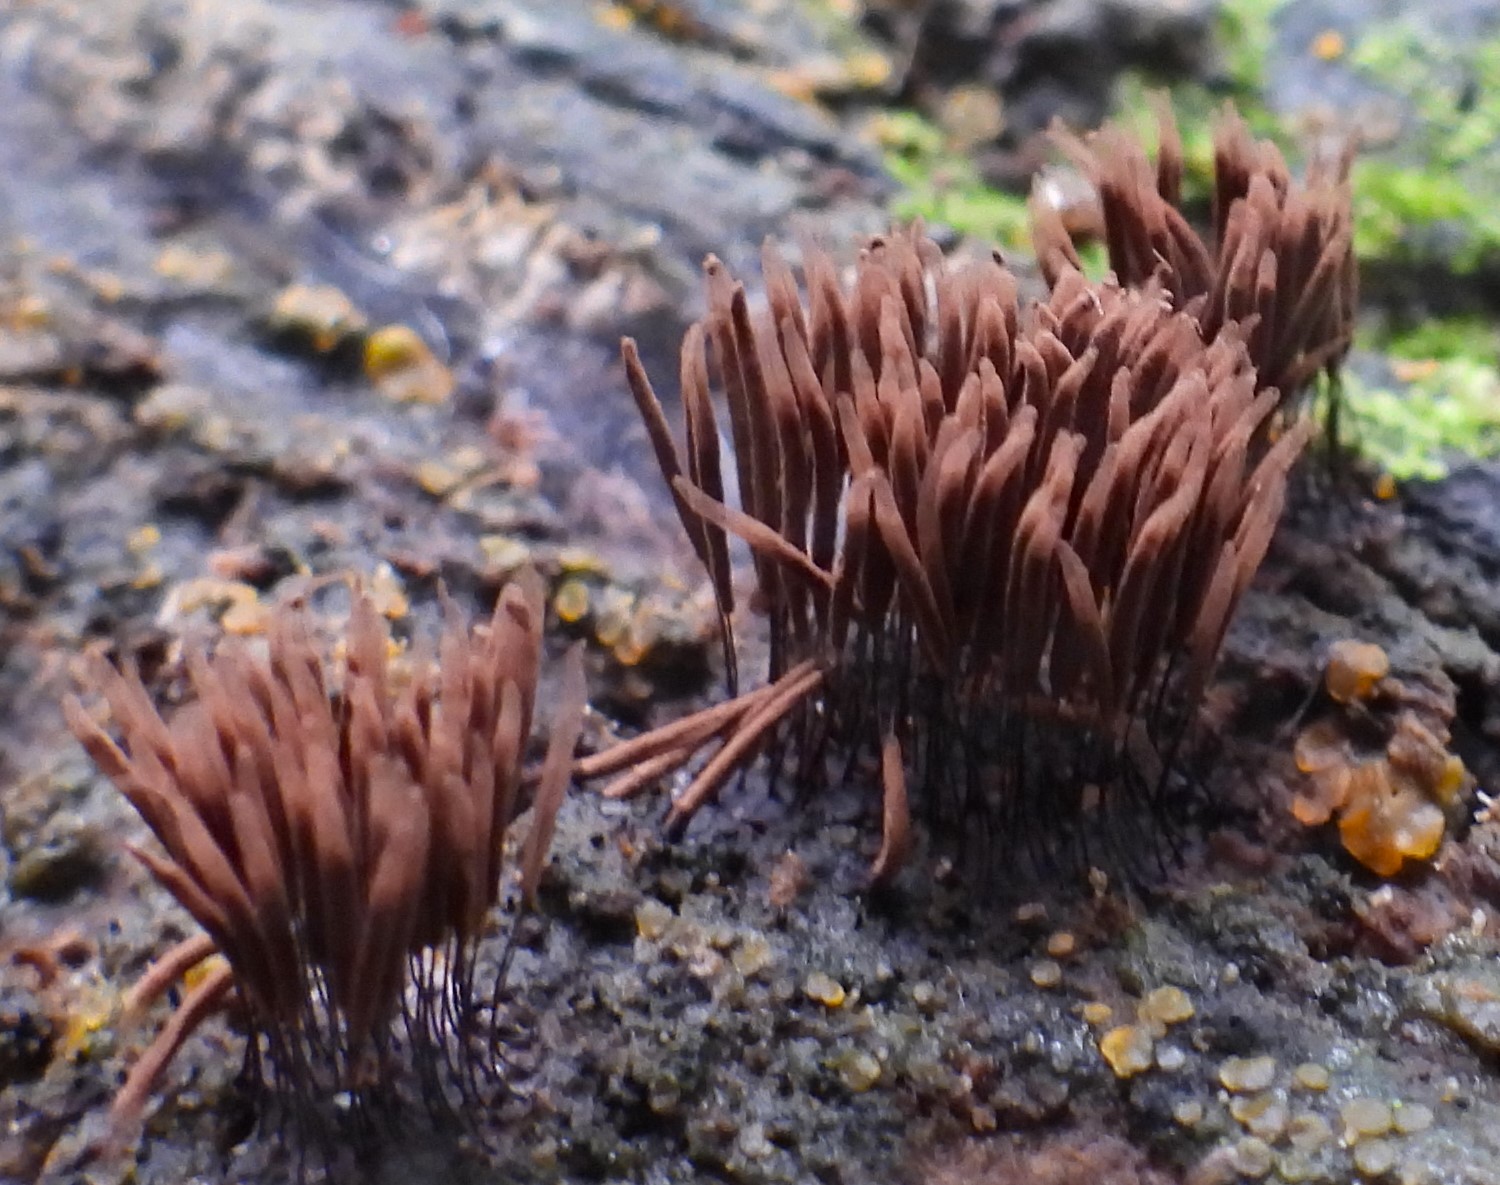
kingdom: Protozoa
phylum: Mycetozoa
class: Myxomycetes
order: Stemonitidales
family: Stemonitidaceae
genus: Stemonitis
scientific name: Stemonitis
